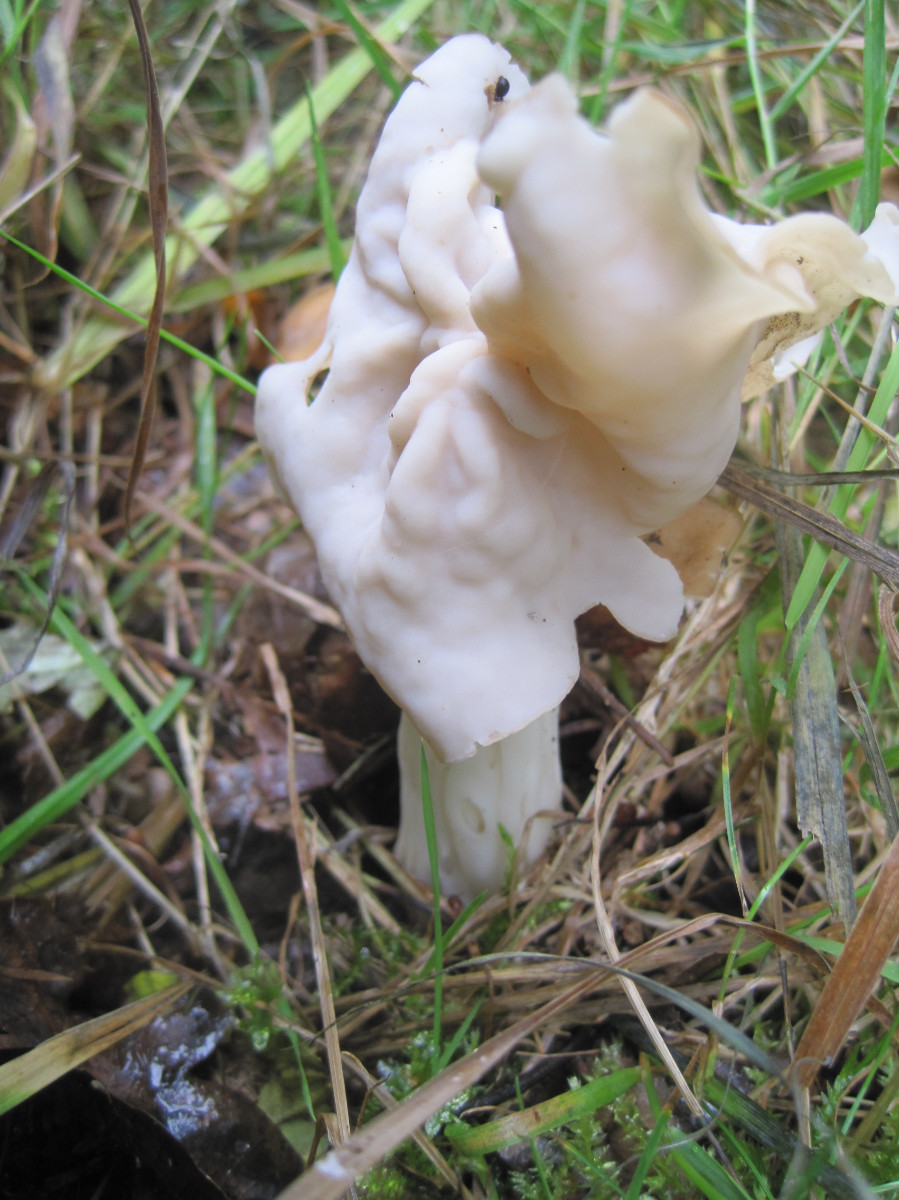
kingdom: Fungi
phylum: Ascomycota
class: Pezizomycetes
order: Pezizales
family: Helvellaceae
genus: Helvella
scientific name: Helvella crispa
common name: kruset foldhat
